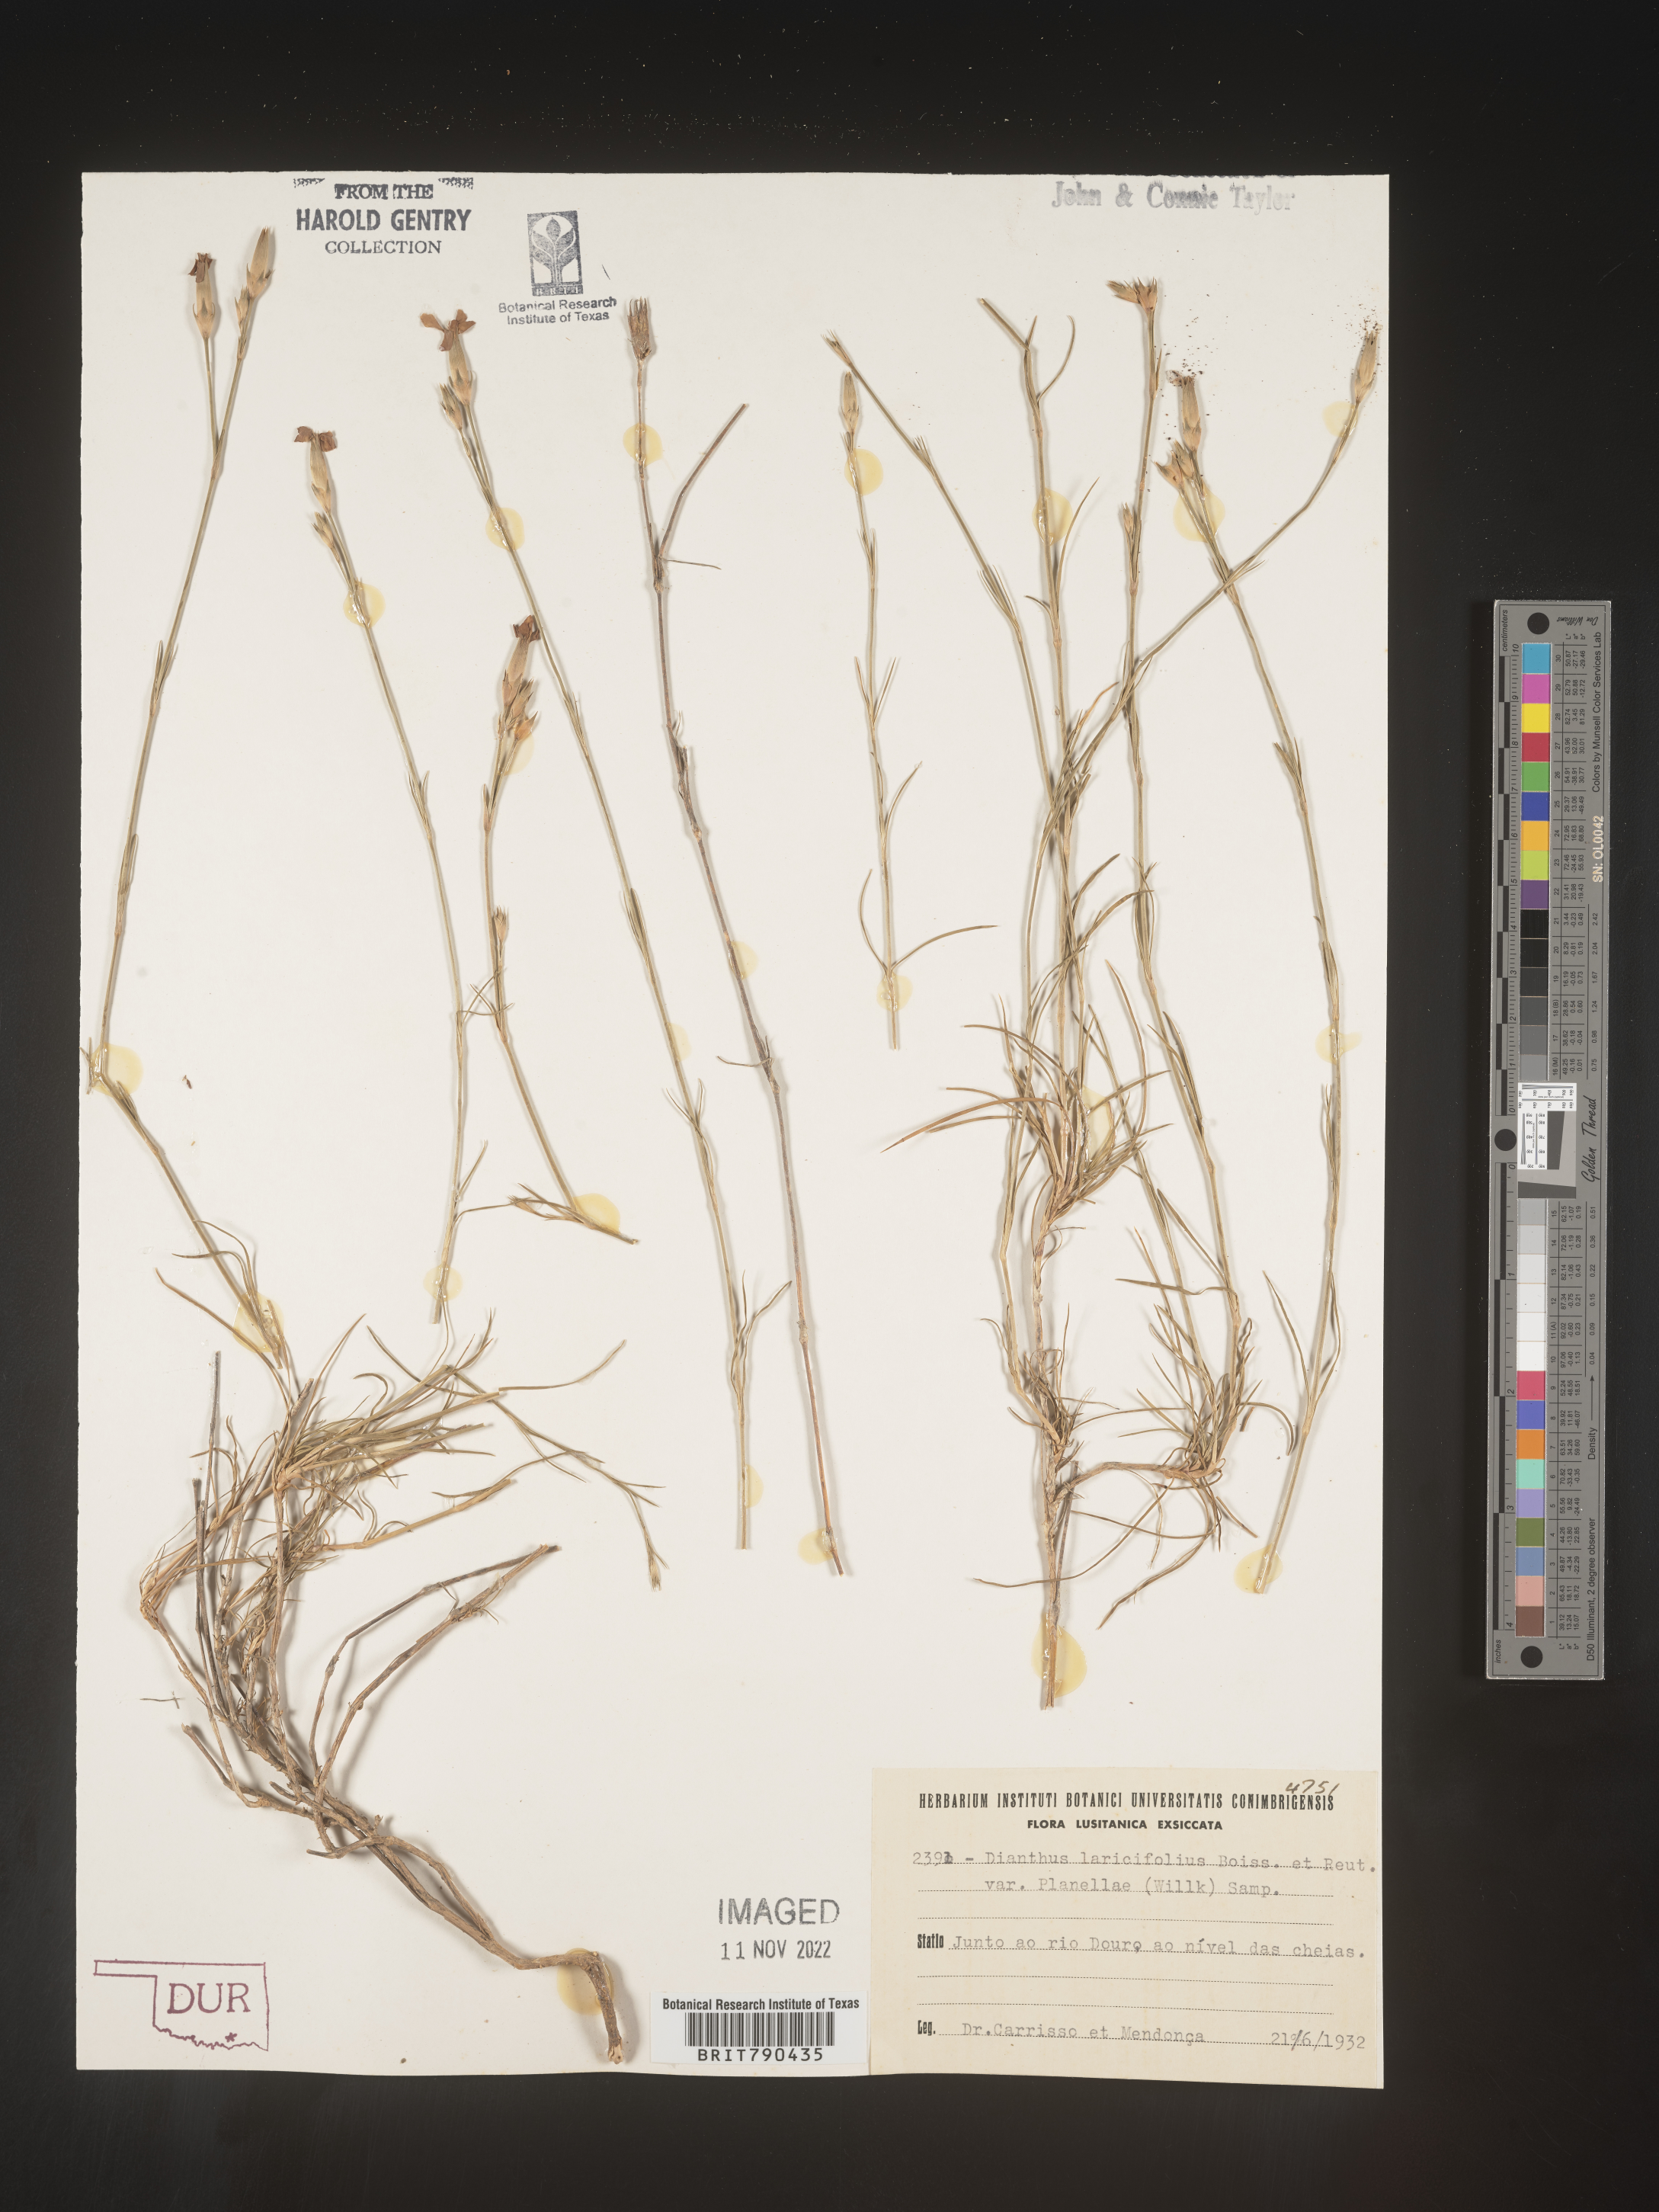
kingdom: Plantae
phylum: Tracheophyta
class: Magnoliopsida
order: Caryophyllales
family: Caryophyllaceae
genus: Dianthus
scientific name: Dianthus
